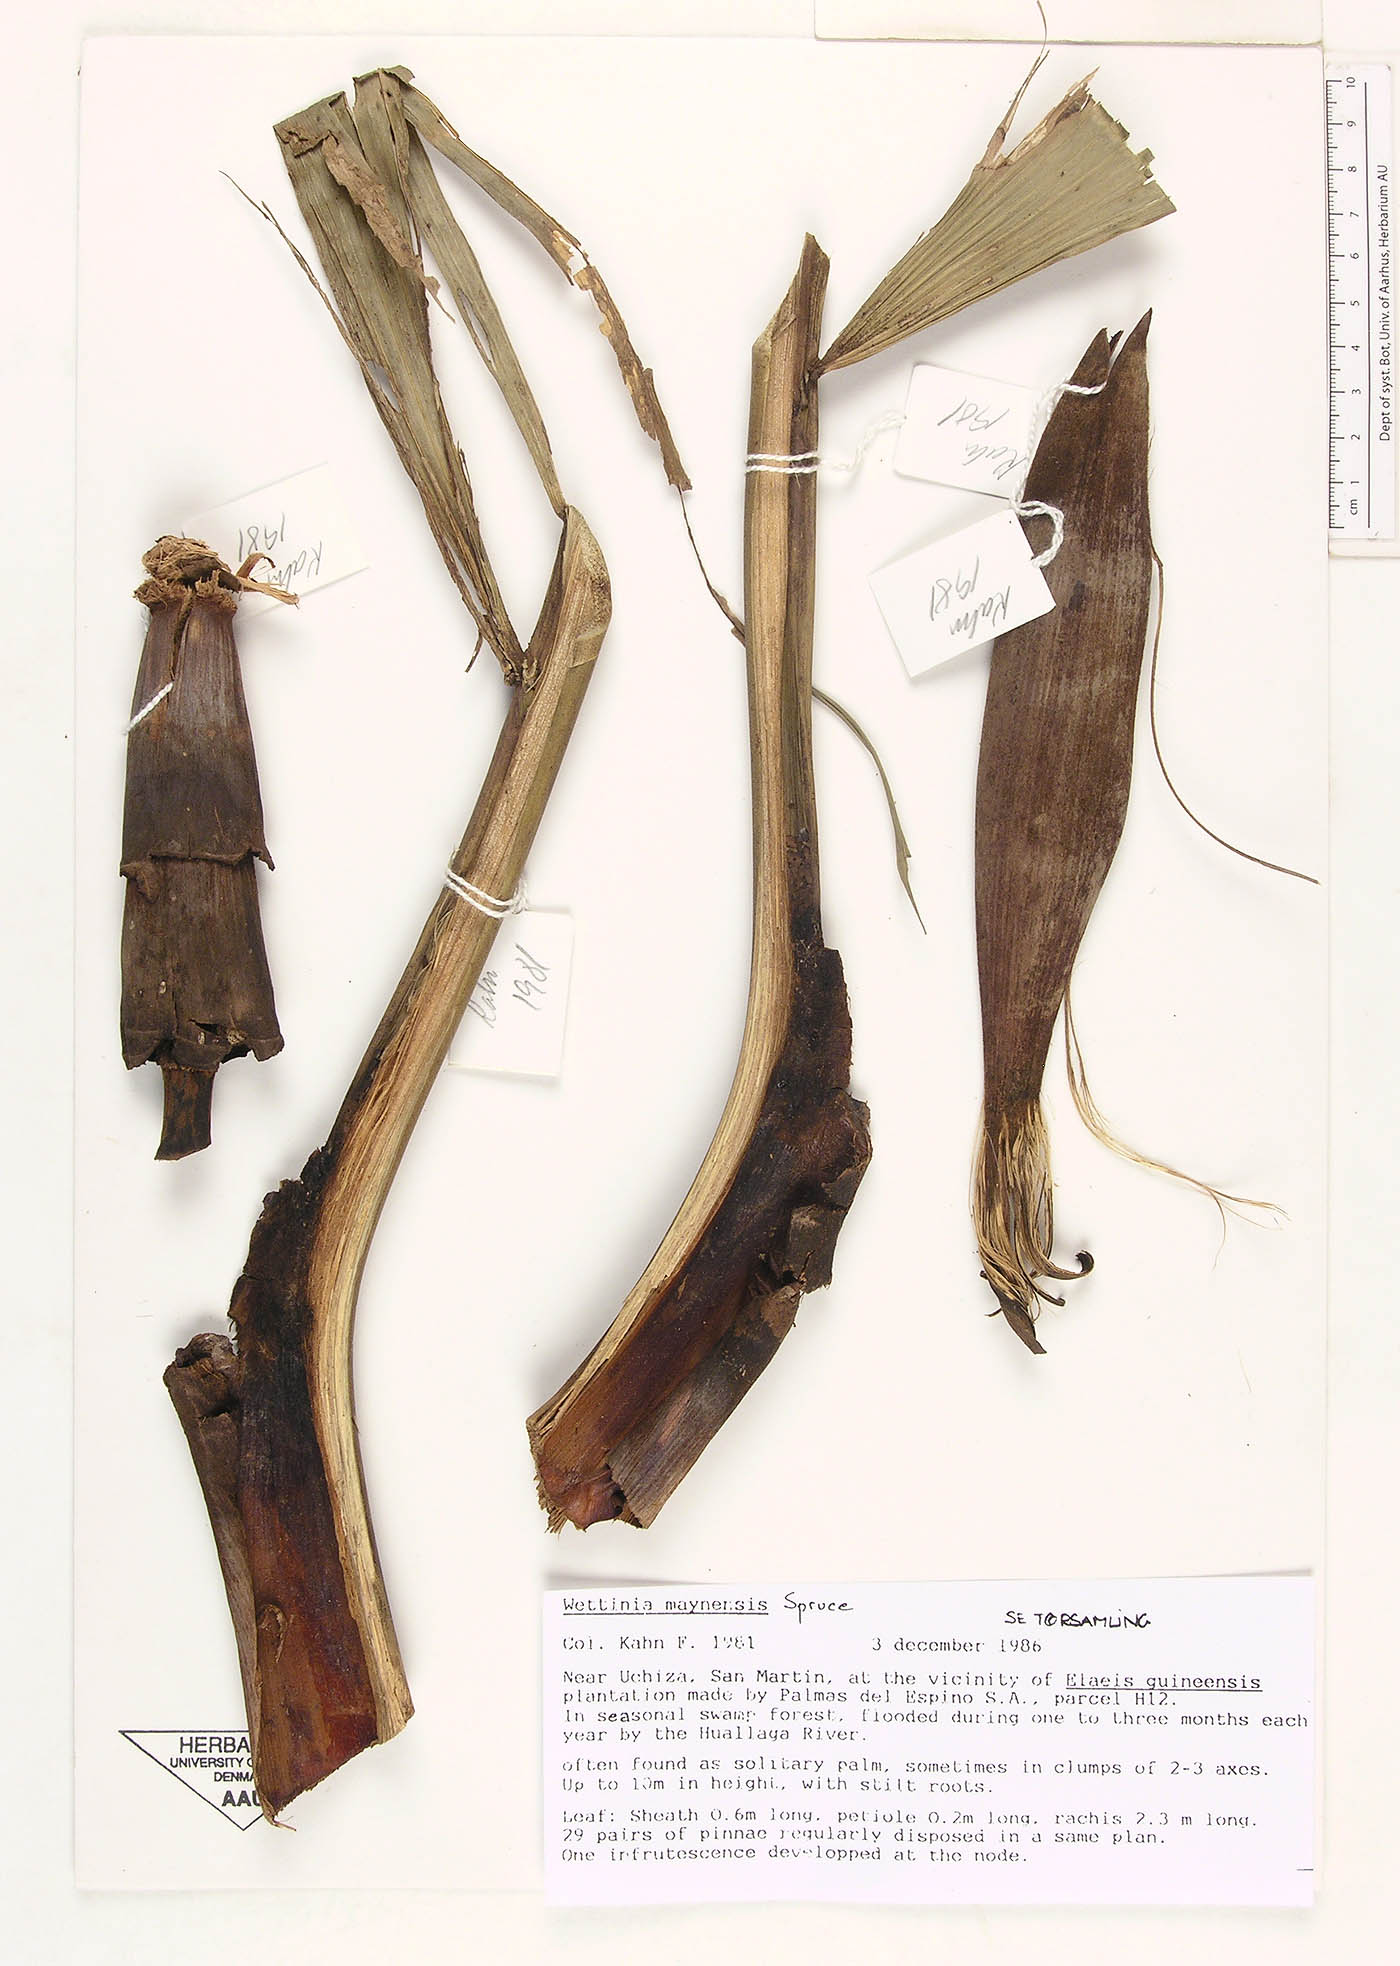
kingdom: Plantae
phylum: Tracheophyta
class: Liliopsida
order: Arecales
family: Arecaceae
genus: Wettinia
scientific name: Wettinia augusta
